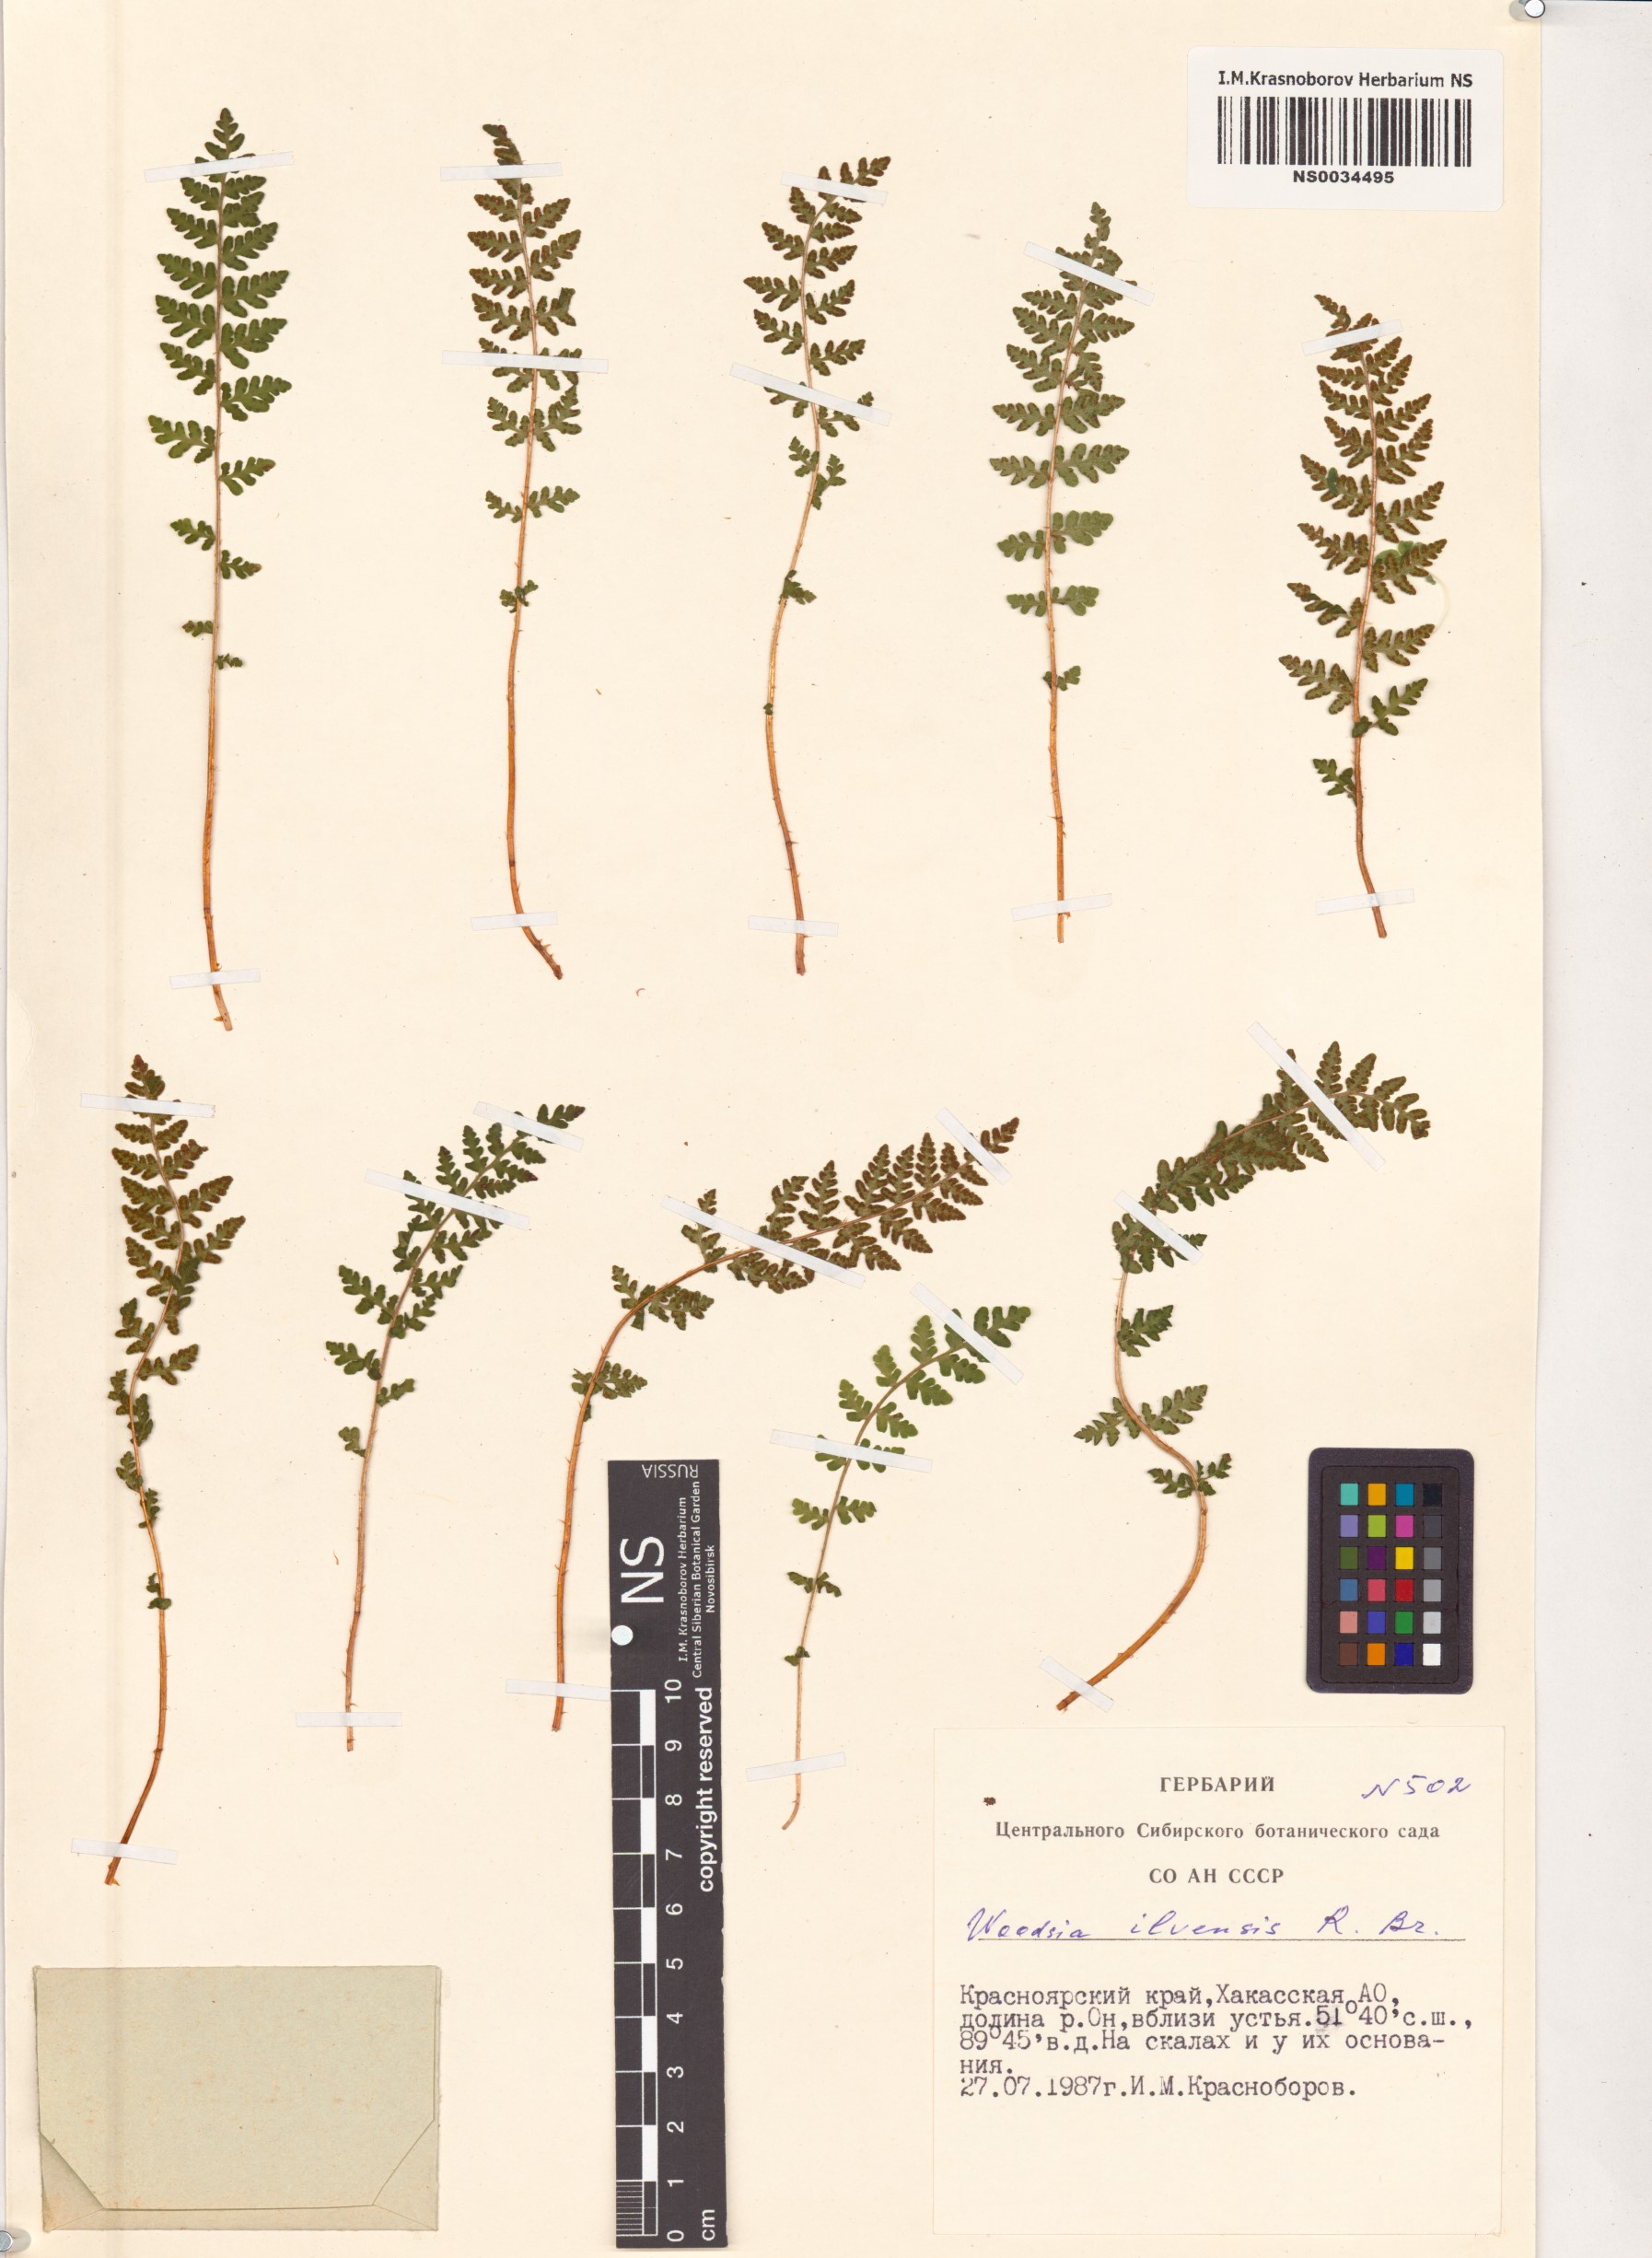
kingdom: Plantae
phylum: Tracheophyta
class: Polypodiopsida
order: Polypodiales
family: Woodsiaceae
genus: Woodsia
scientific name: Woodsia ilvensis
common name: Fragrant woodsia
